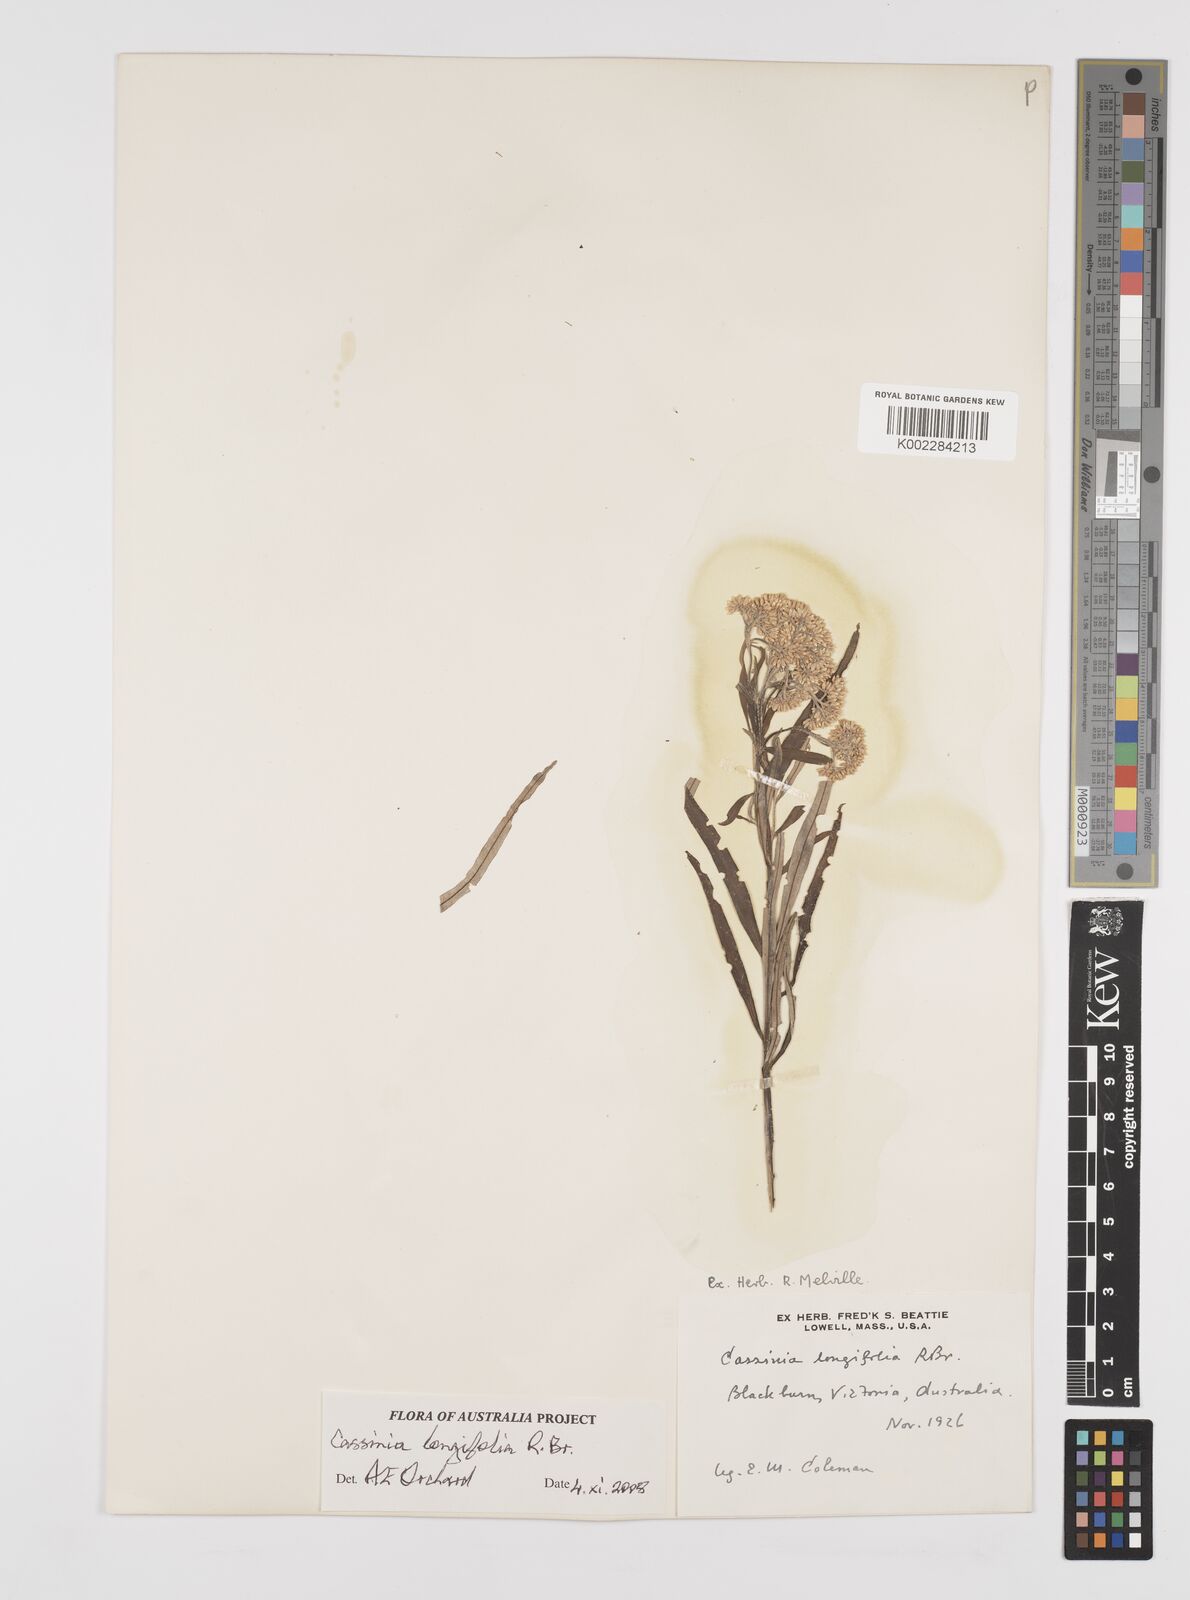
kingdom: Plantae
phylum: Tracheophyta
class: Magnoliopsida
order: Asterales
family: Asteraceae
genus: Cassinia
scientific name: Cassinia longifolia
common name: Longleaf-dogwood
